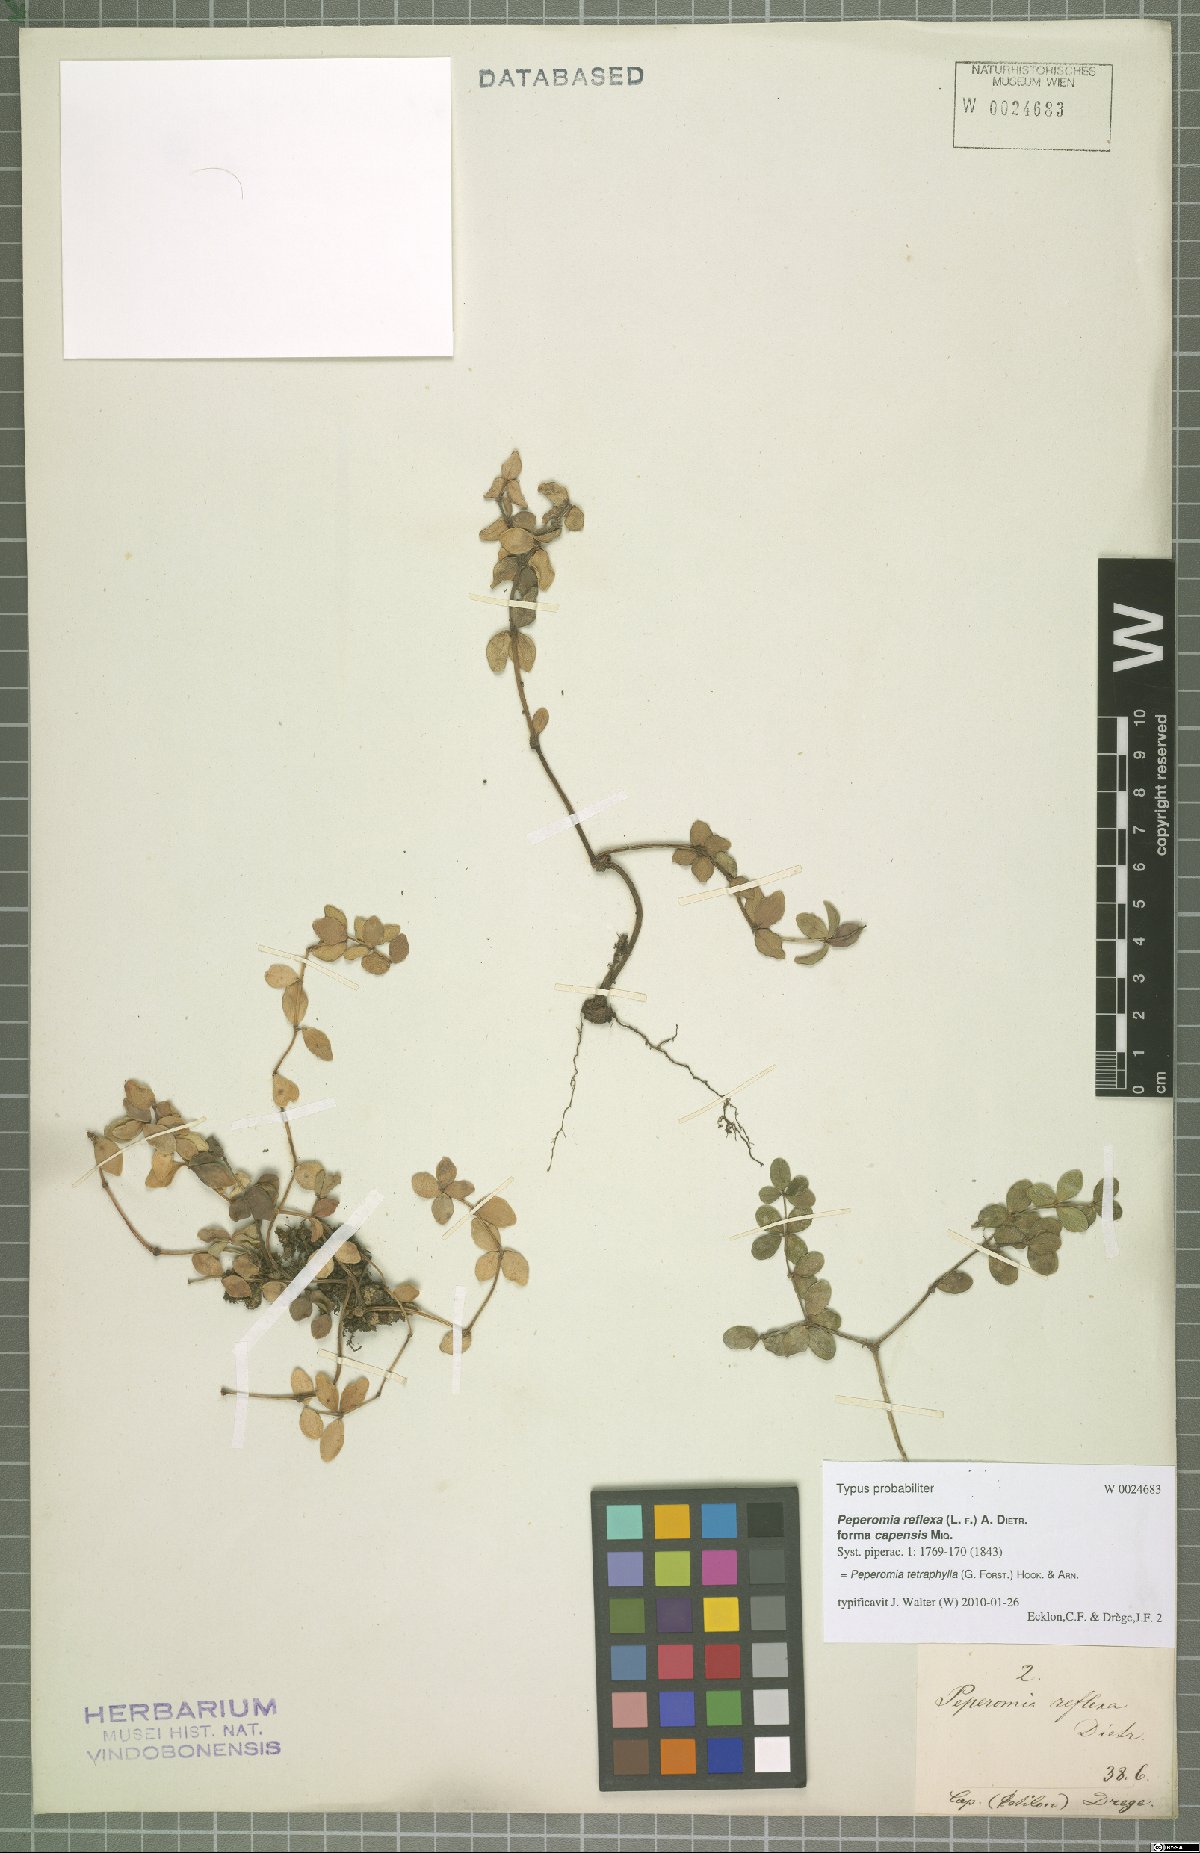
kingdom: Plantae
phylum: Tracheophyta
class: Magnoliopsida
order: Piperales
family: Piperaceae
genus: Peperomia
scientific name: Peperomia tetraphylla
